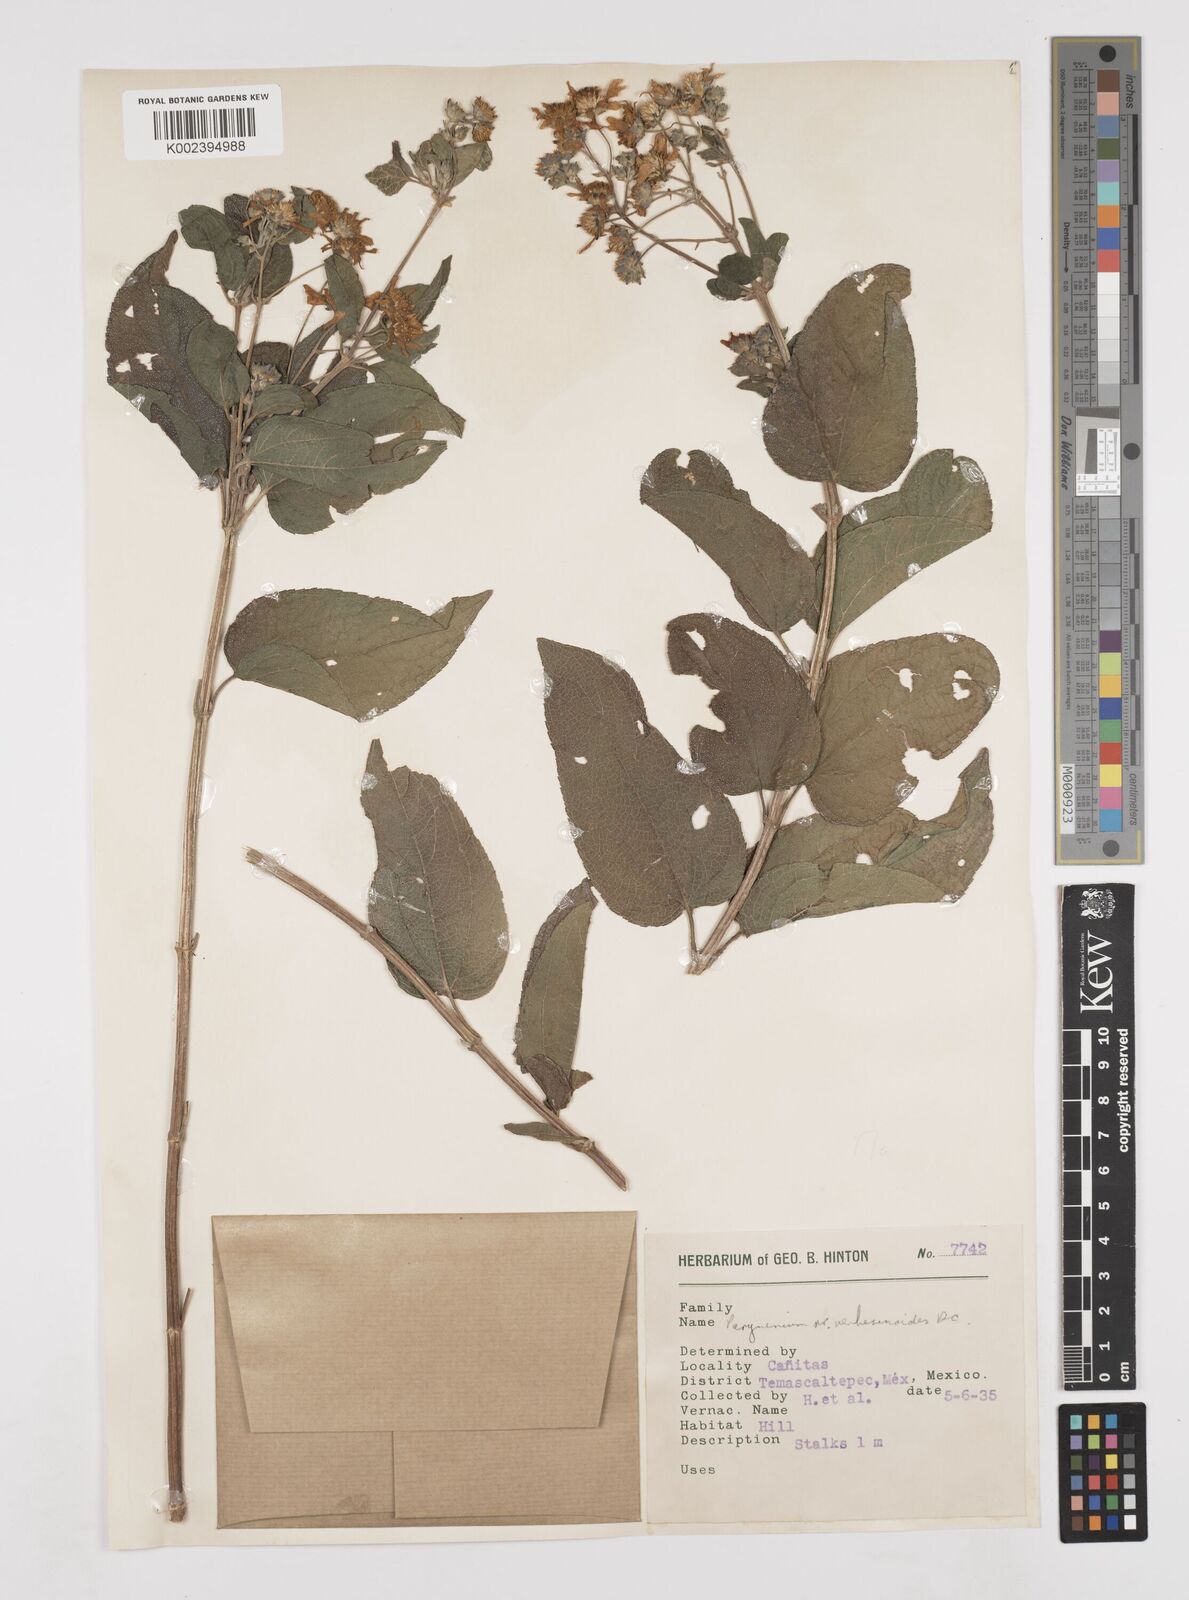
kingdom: Plantae
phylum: Tracheophyta
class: Magnoliopsida
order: Asterales
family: Asteraceae
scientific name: Asteraceae
